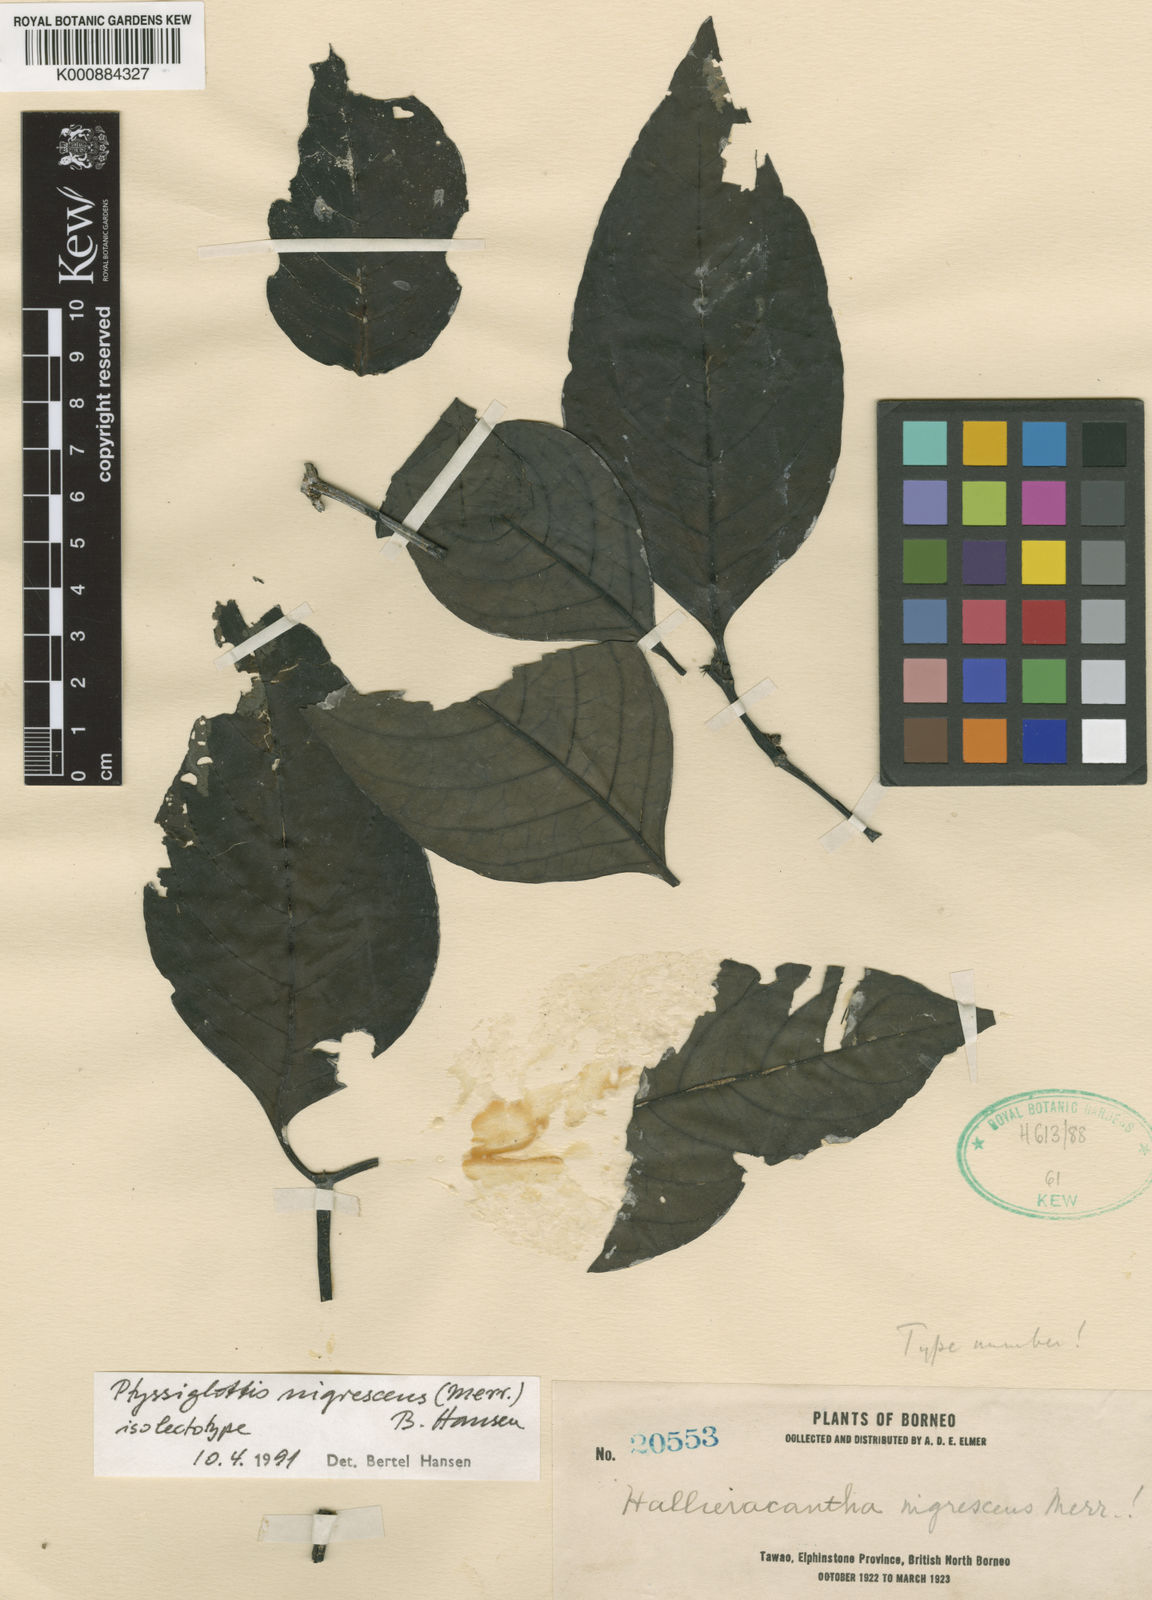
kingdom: Plantae
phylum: Tracheophyta
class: Magnoliopsida
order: Lamiales
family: Acanthaceae
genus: Ptyssiglottis
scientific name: Ptyssiglottis nigrescens
